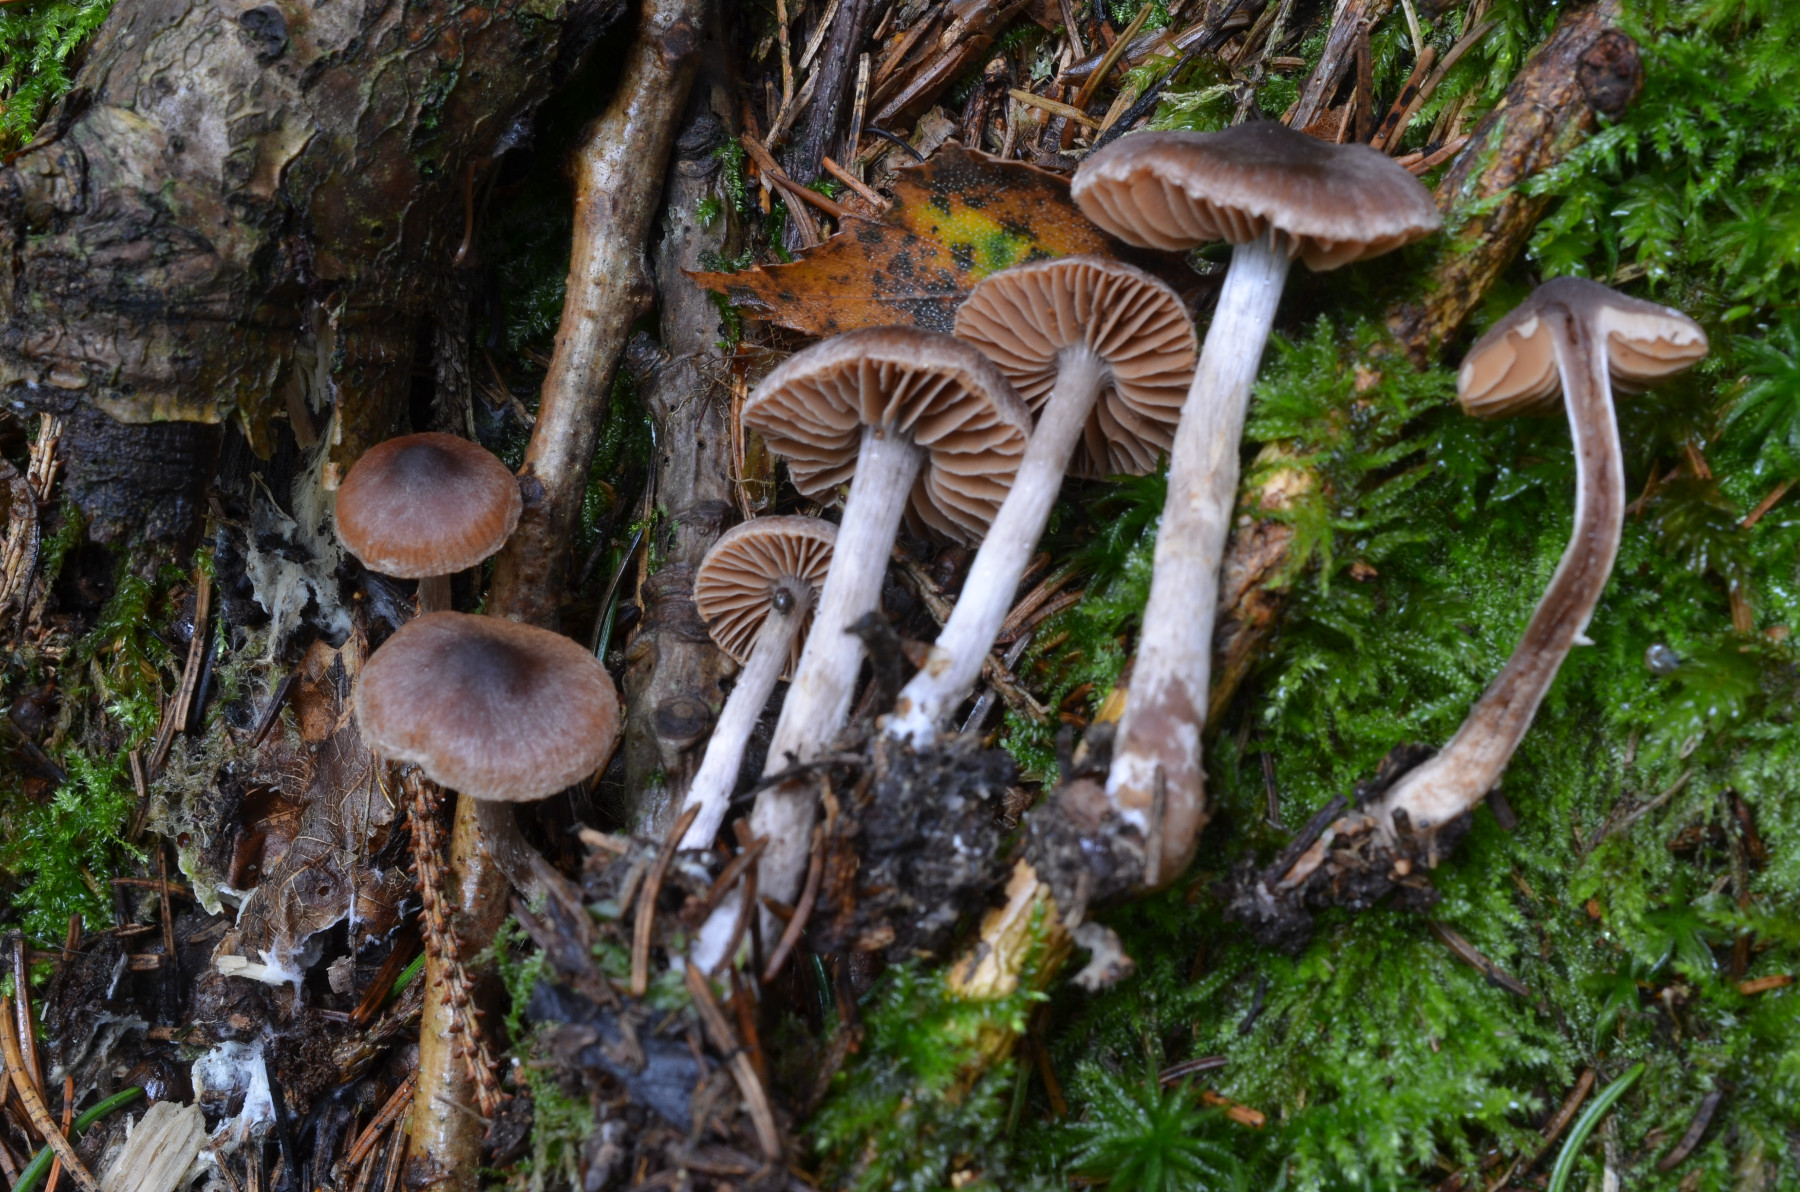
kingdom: Fungi
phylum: Basidiomycota
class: Agaricomycetes
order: Agaricales
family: Cortinariaceae
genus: Cortinarius
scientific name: Cortinarius hirtus
